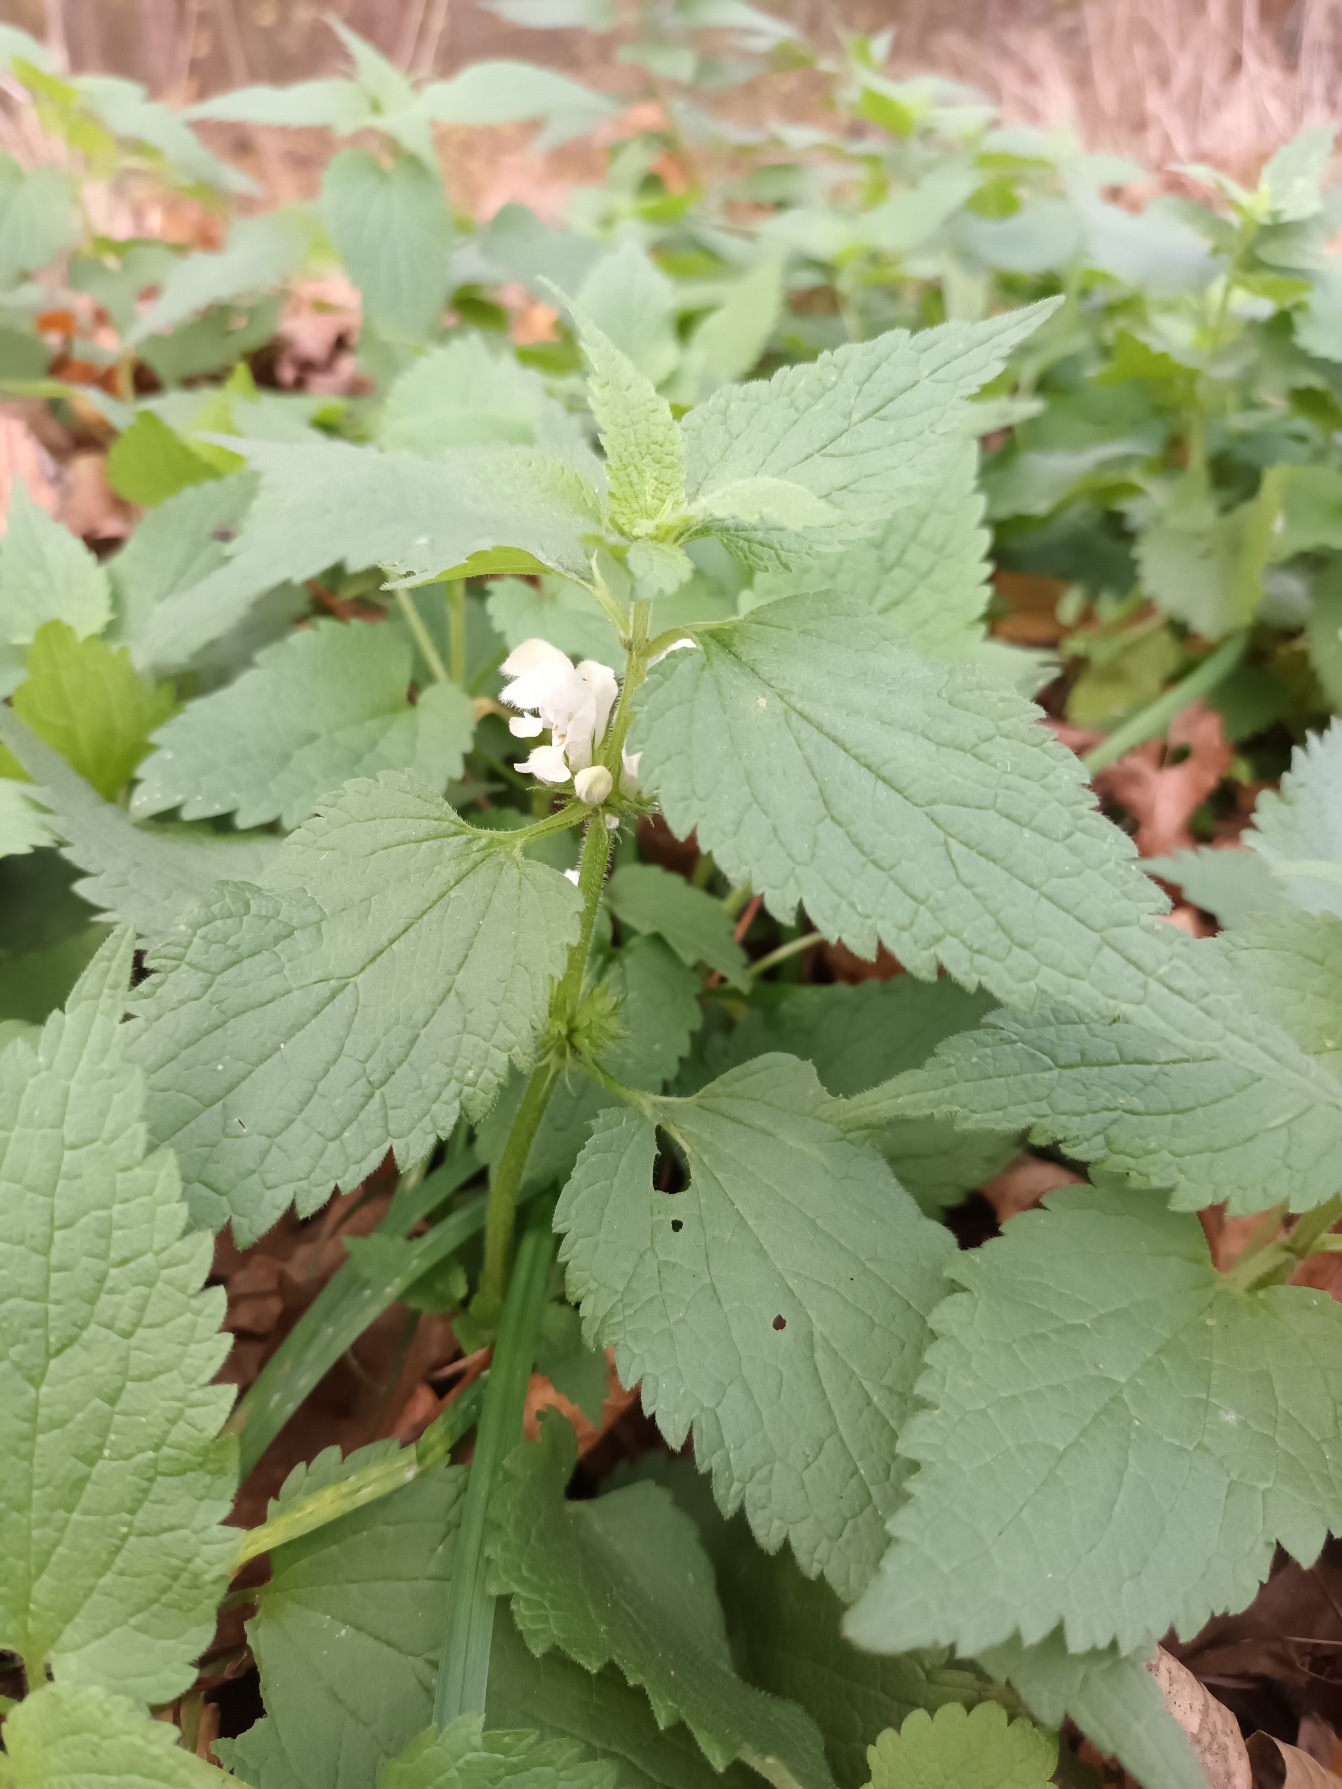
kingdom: Plantae
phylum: Tracheophyta
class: Magnoliopsida
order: Lamiales
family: Lamiaceae
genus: Lamium
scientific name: Lamium album
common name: Døvnælde
